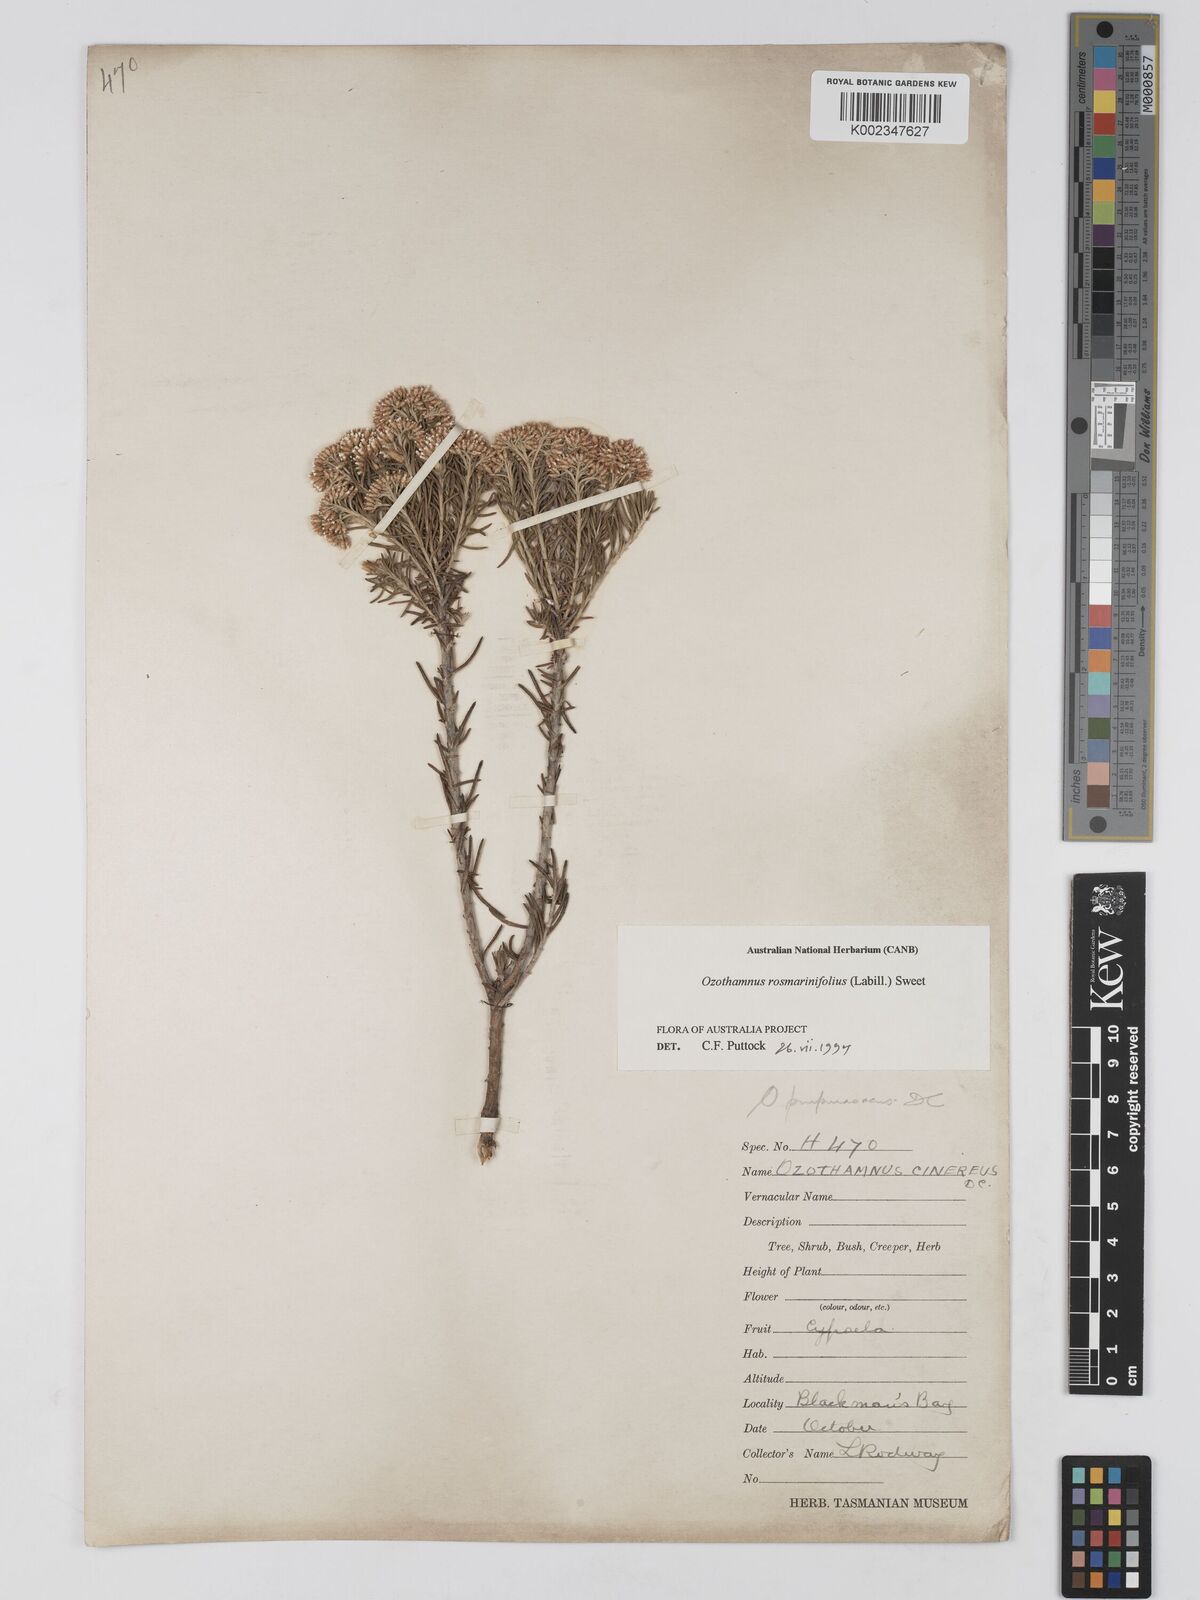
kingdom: Plantae
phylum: Tracheophyta
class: Magnoliopsida
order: Asterales
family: Asteraceae
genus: Ozothamnus
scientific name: Ozothamnus rosmarinifolius
